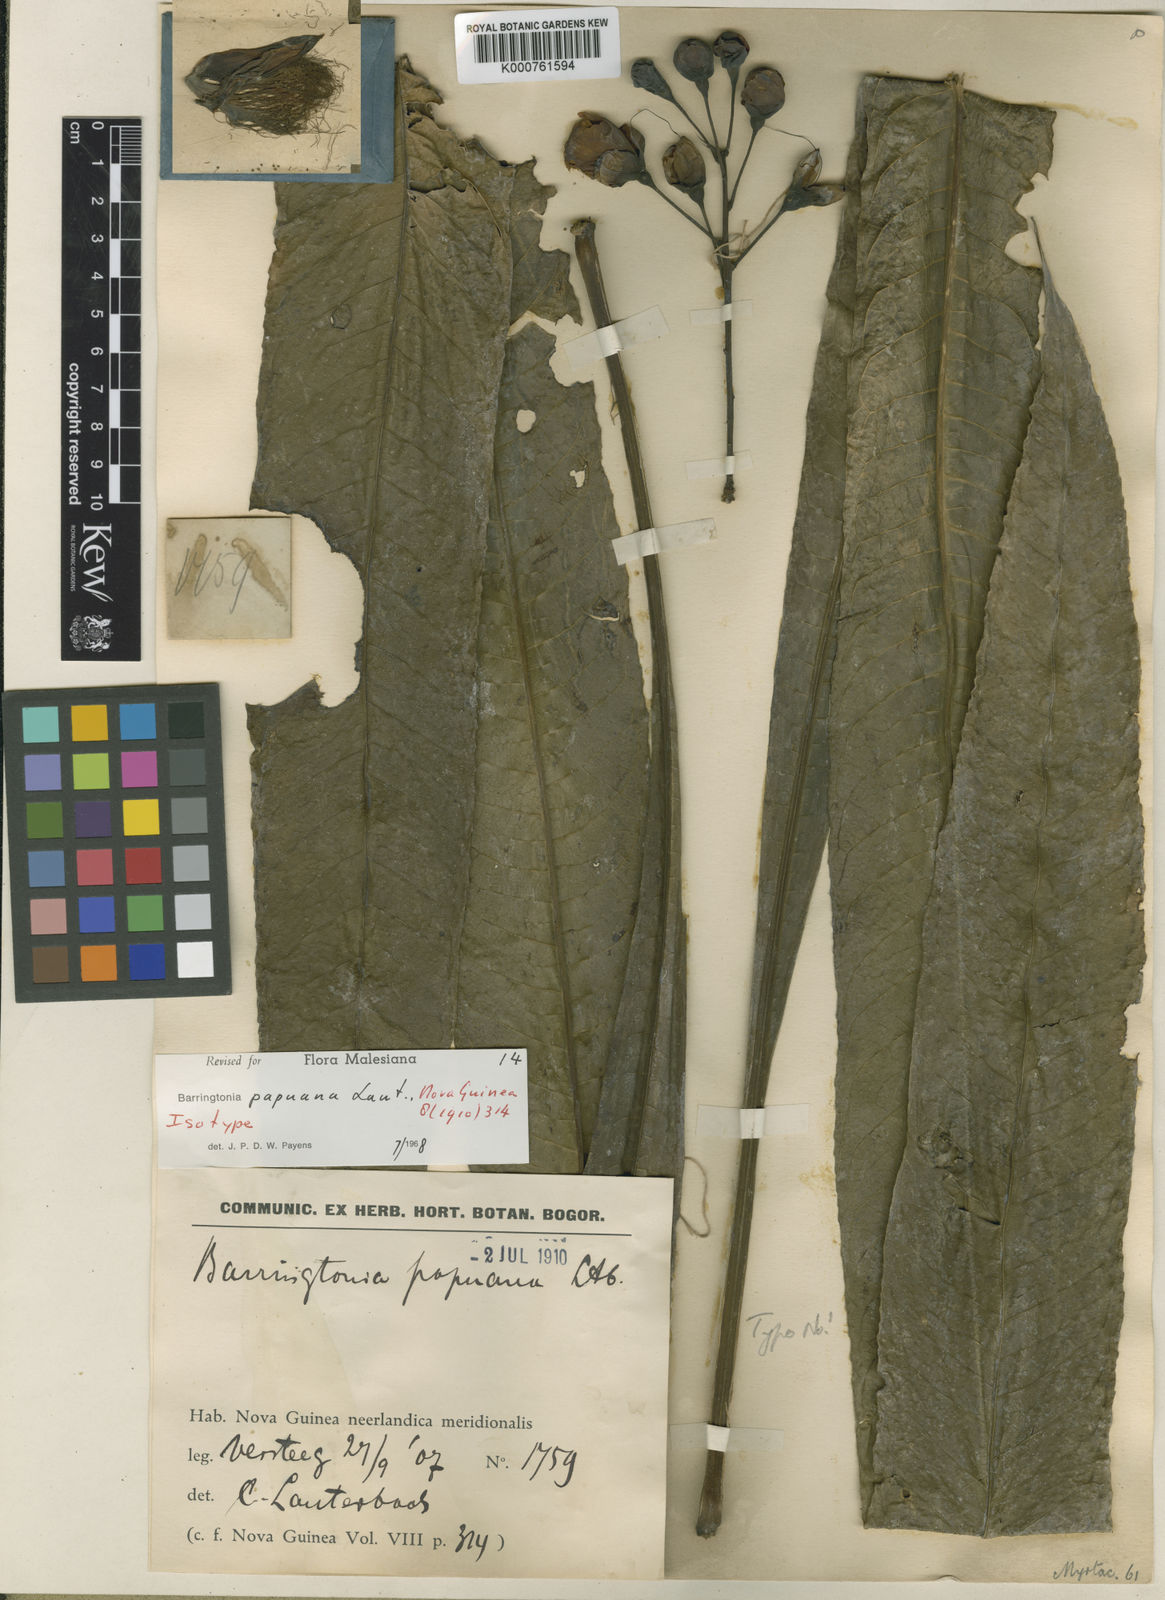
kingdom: Plantae
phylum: Tracheophyta
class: Magnoliopsida
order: Ericales
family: Lecythidaceae
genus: Barringtonia
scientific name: Barringtonia papuana
